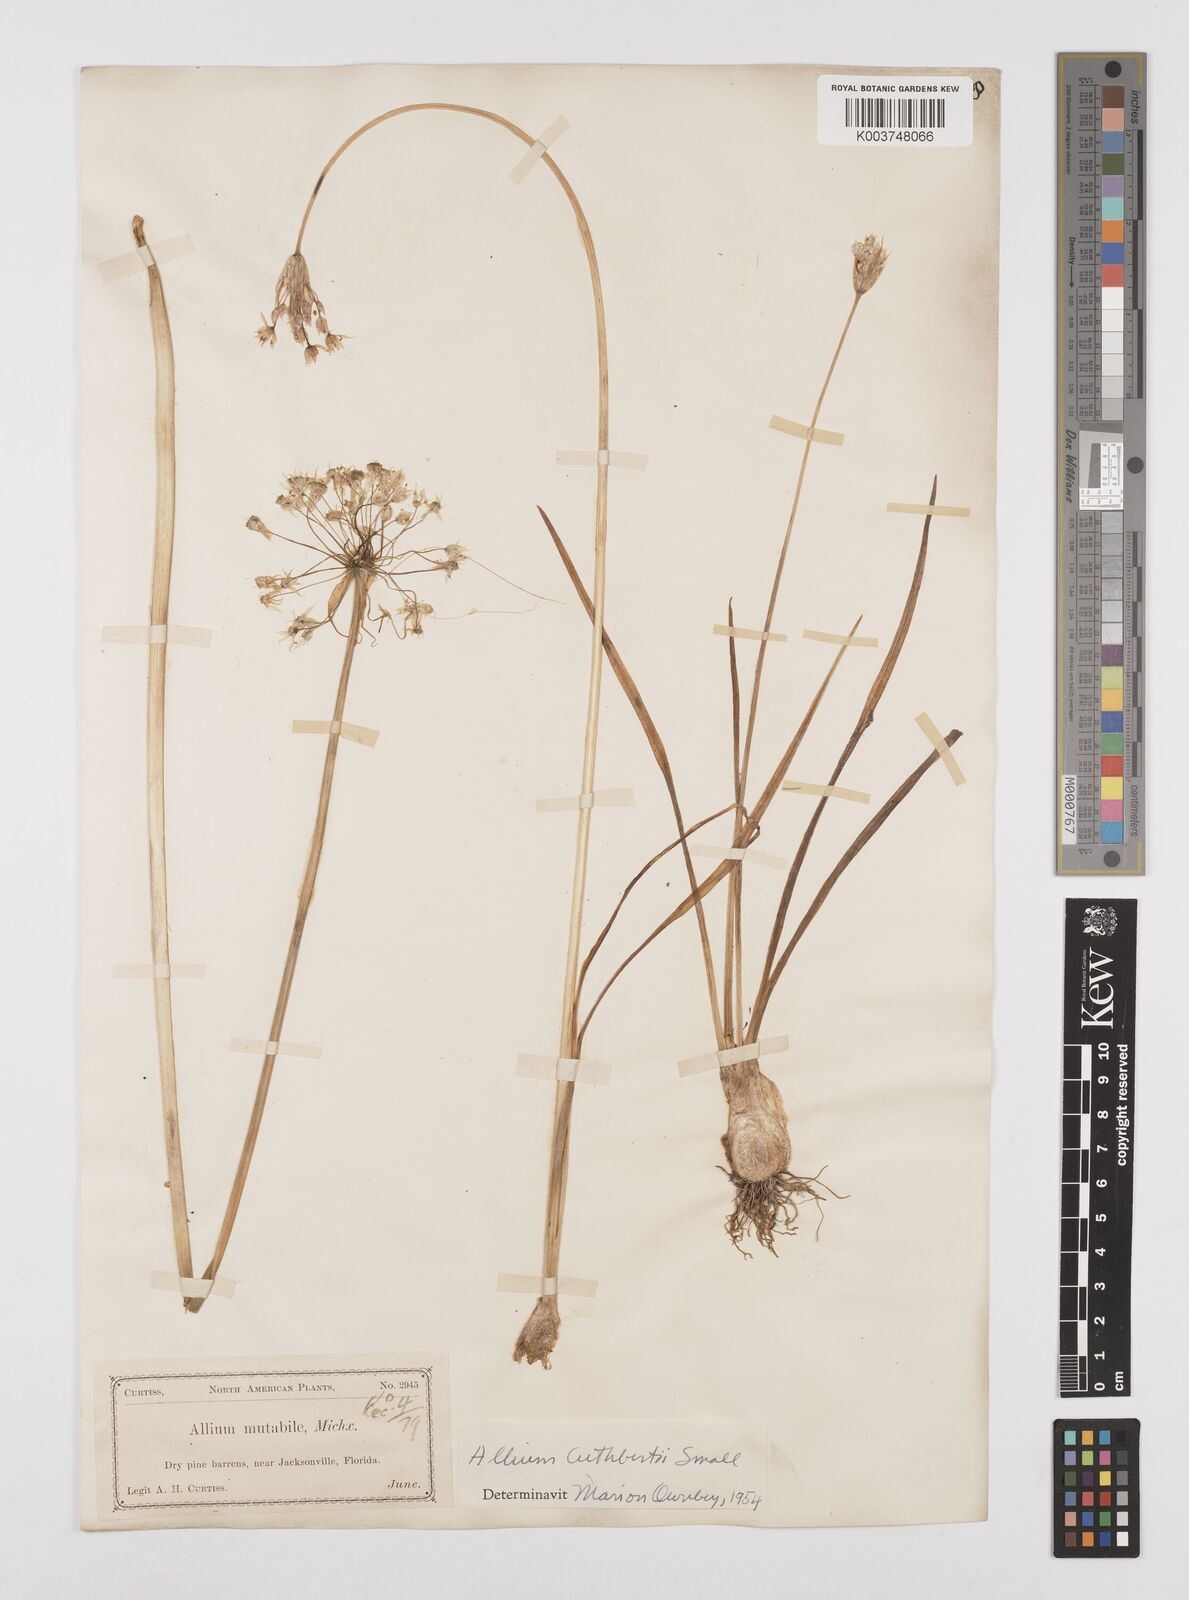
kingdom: Plantae
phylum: Tracheophyta
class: Liliopsida
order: Asparagales
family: Amaryllidaceae
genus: Allium
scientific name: Allium cuthbertii
